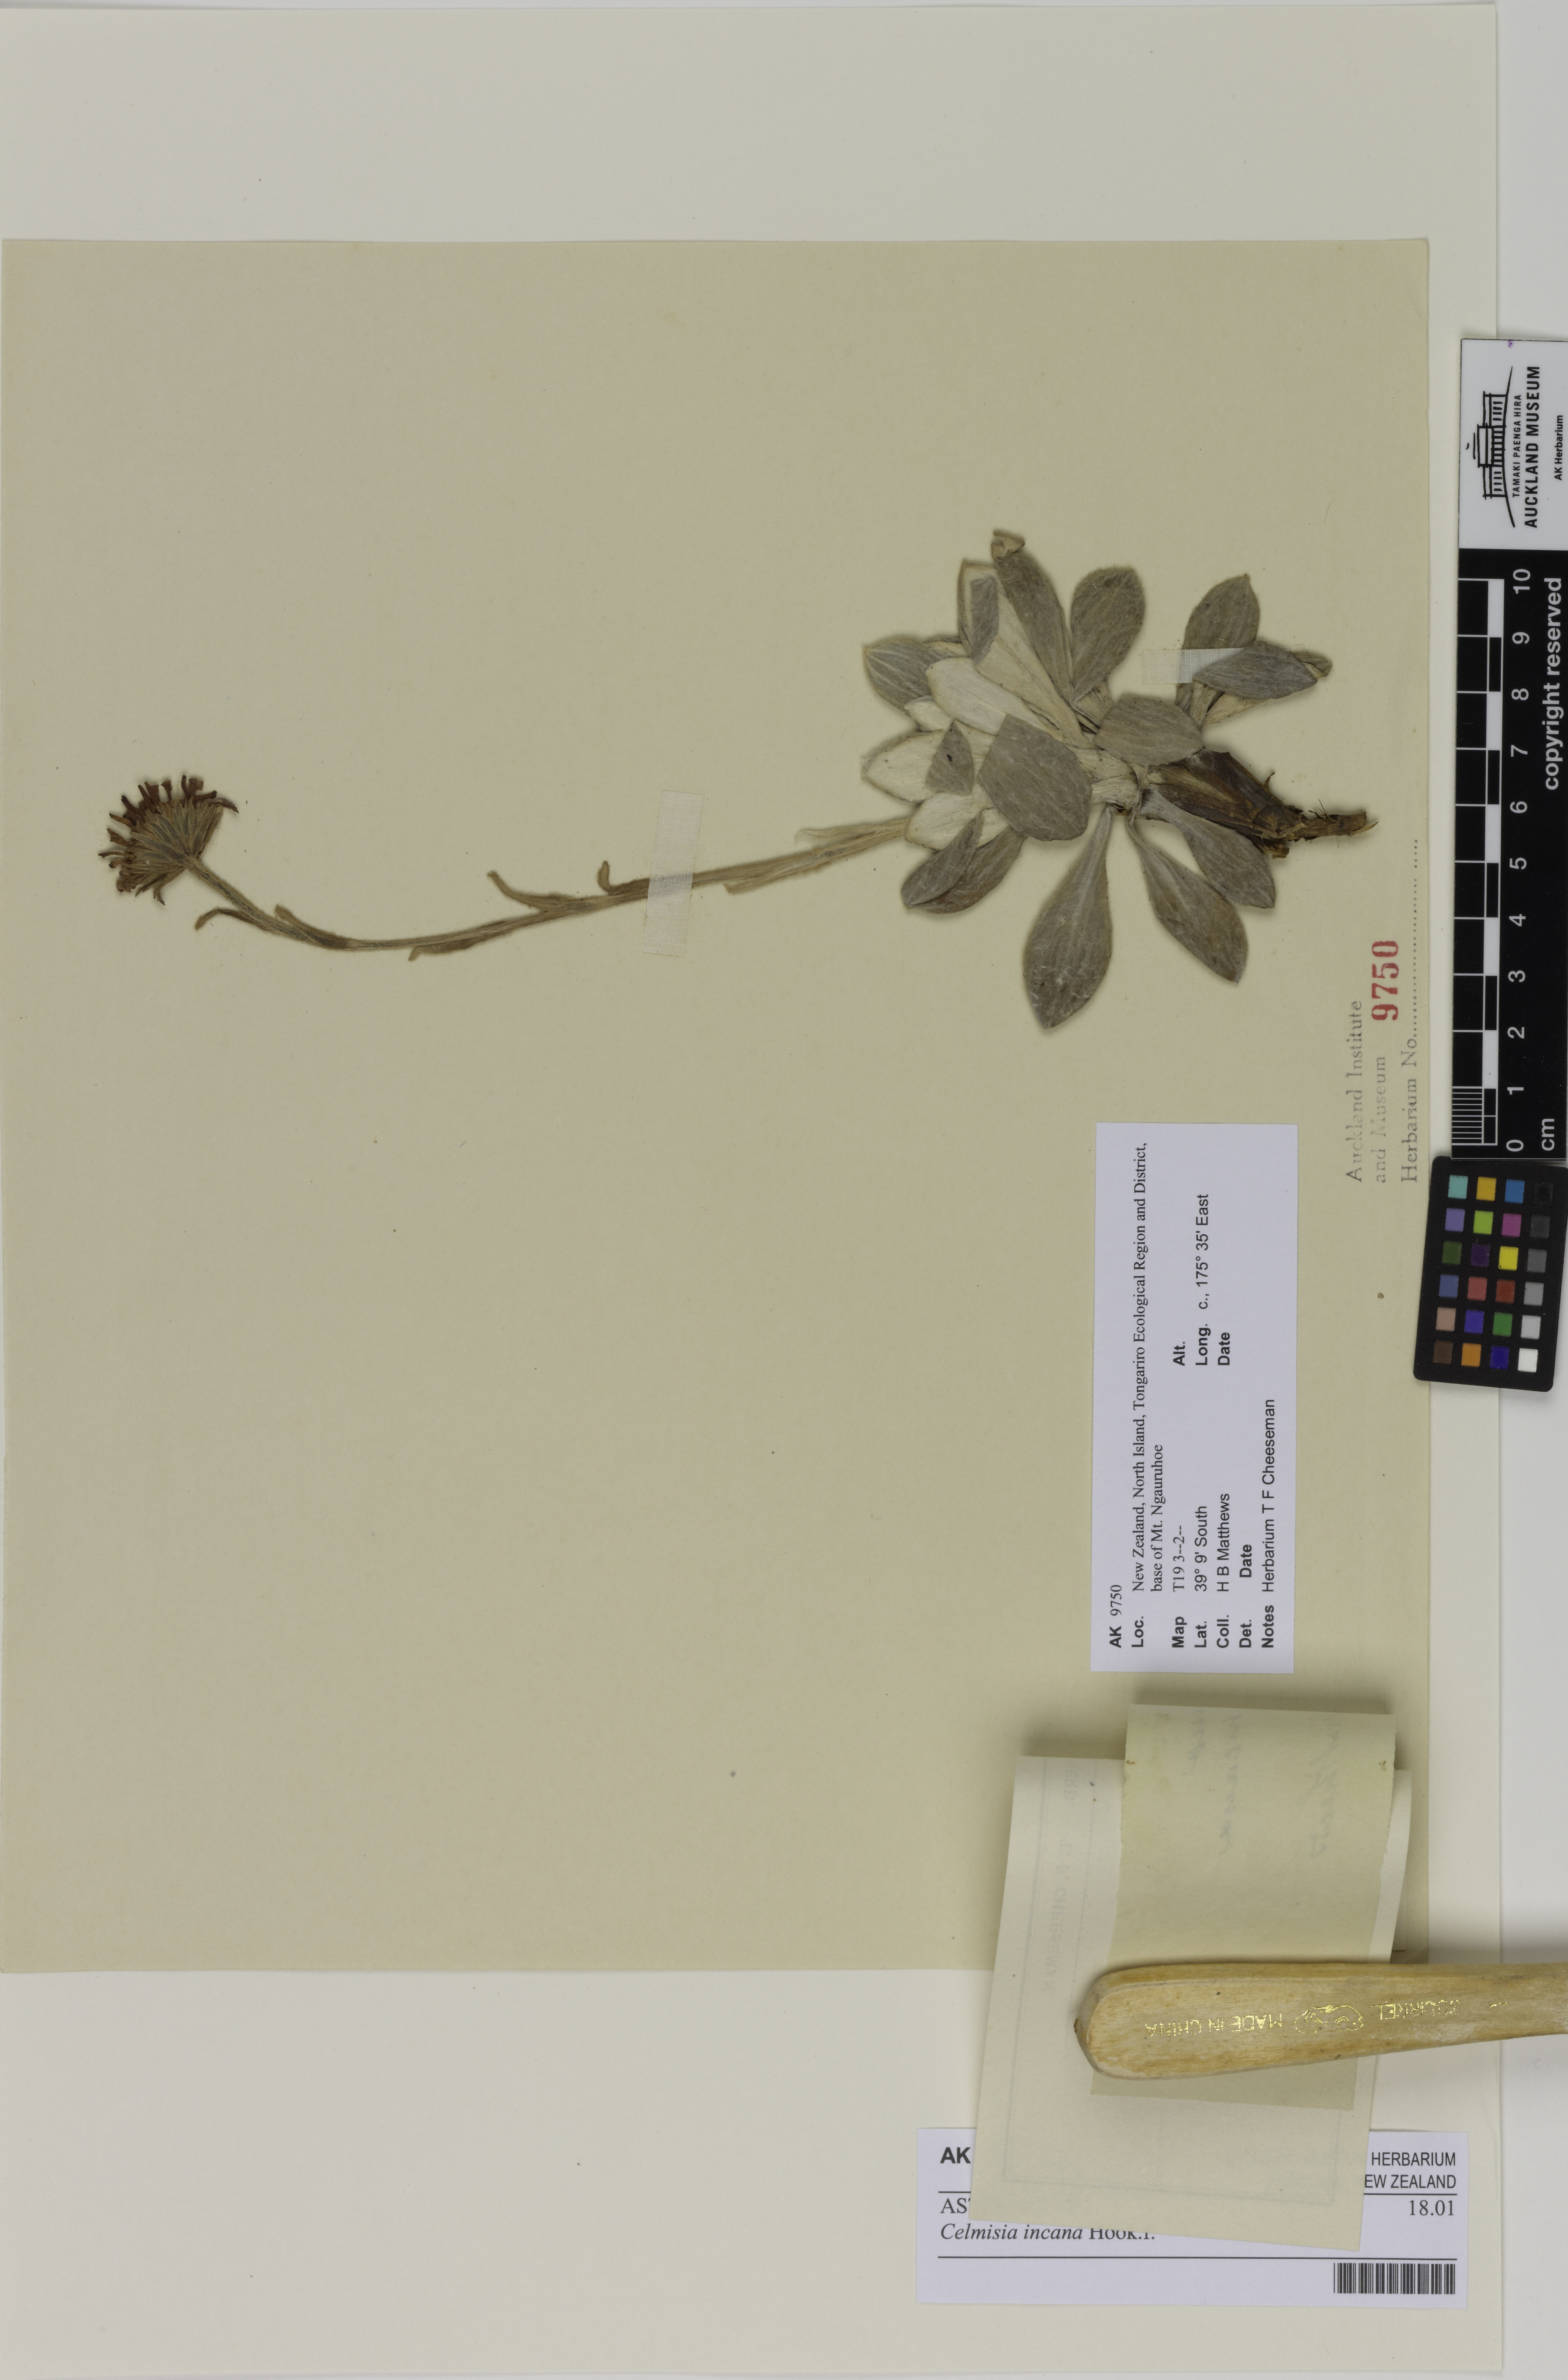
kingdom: Plantae
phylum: Tracheophyta
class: Magnoliopsida
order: Asterales
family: Asteraceae
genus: Celmisia
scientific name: Celmisia incana
